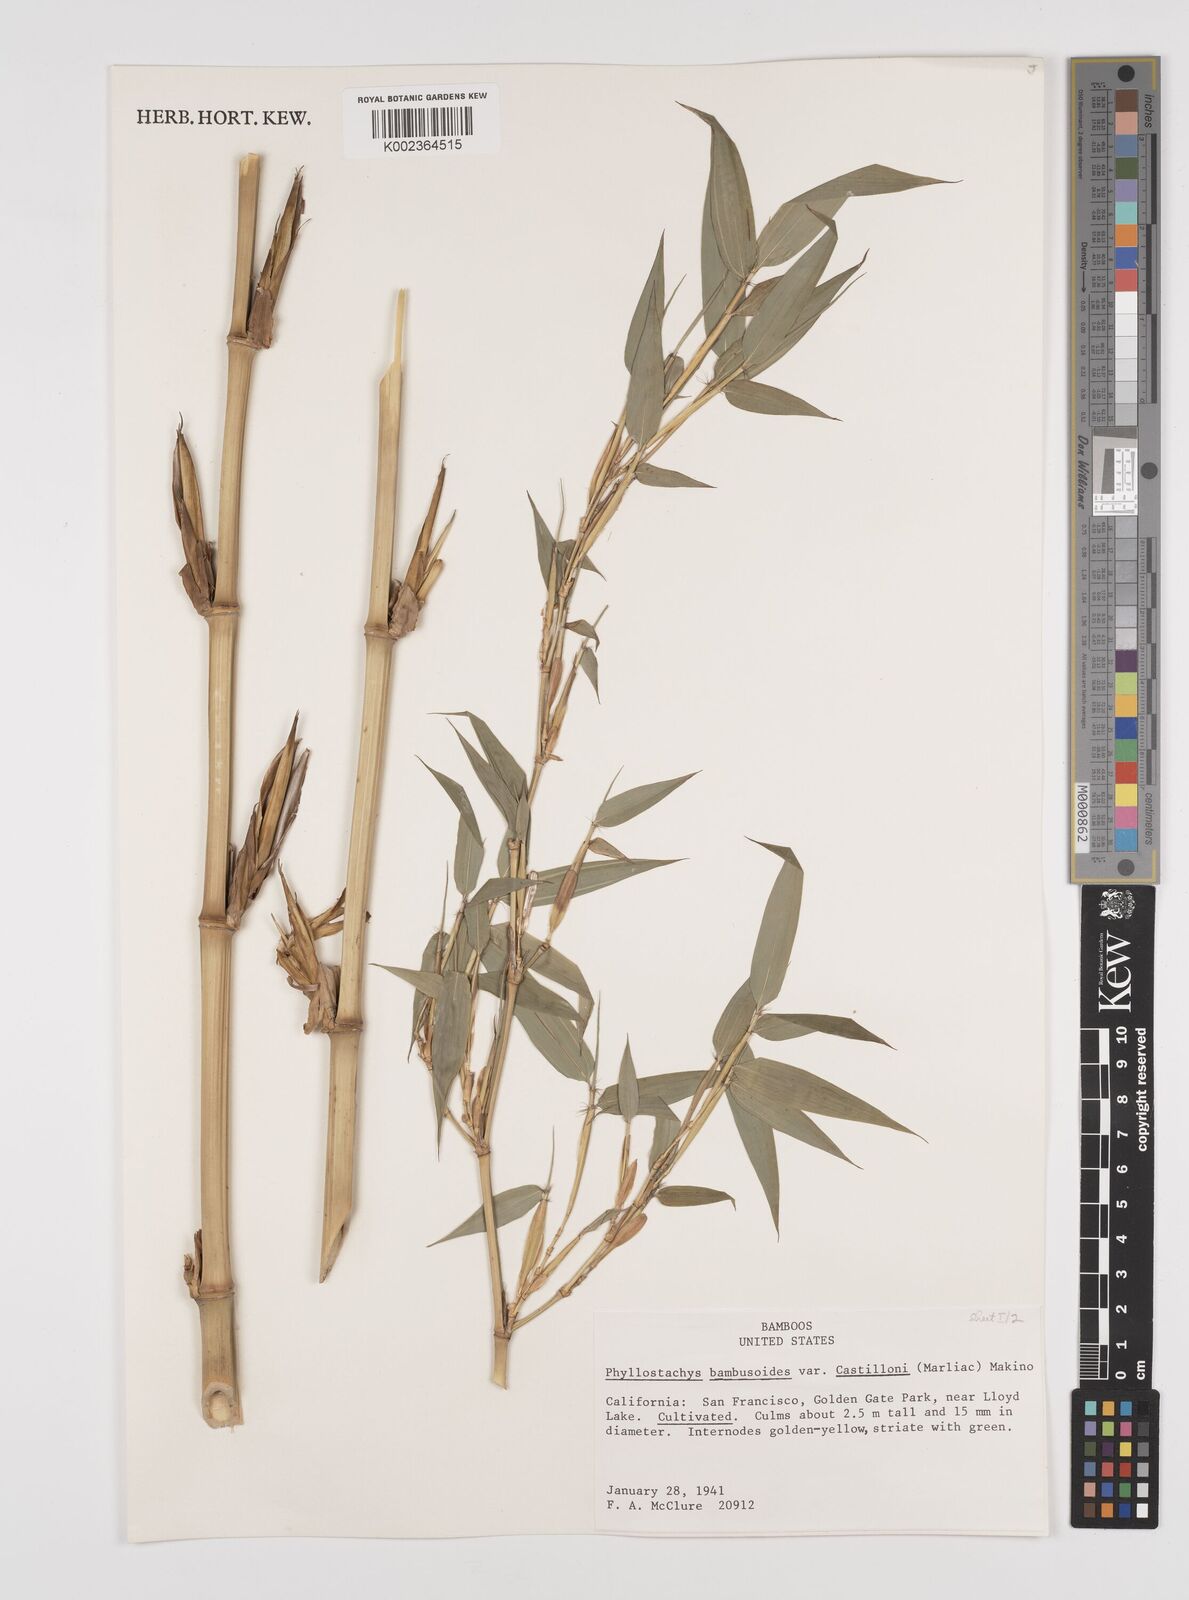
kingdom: Plantae
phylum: Tracheophyta
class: Liliopsida
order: Poales
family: Poaceae
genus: Phyllostachys
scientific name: Phyllostachys reticulata
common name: Bamboo
